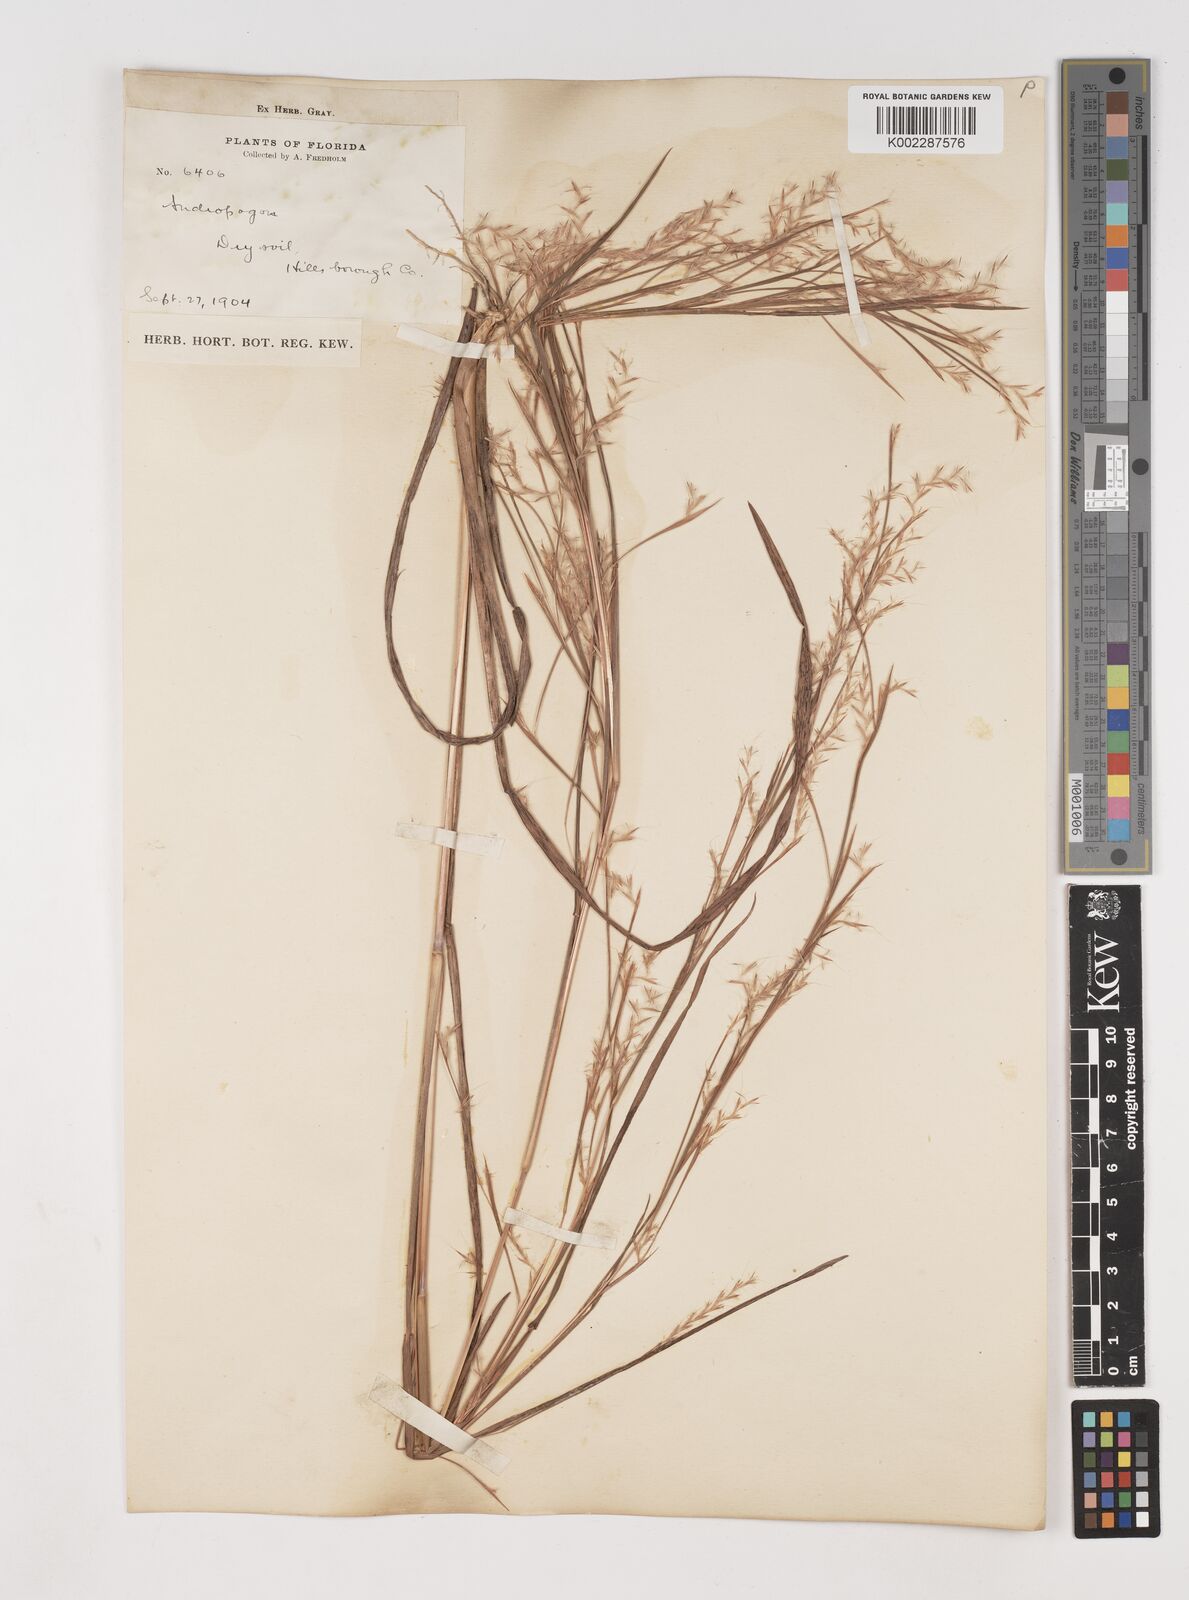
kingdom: Plantae
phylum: Tracheophyta
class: Liliopsida
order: Poales
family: Poaceae
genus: Schizachyrium
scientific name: Schizachyrium scoparium
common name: Little bluestem
